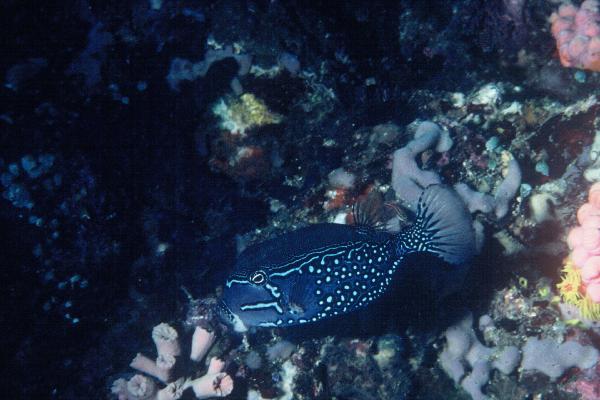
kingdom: Animalia
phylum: Chordata
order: Tetraodontiformes
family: Ostraciidae
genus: Ostracion
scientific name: Ostracion solorense
